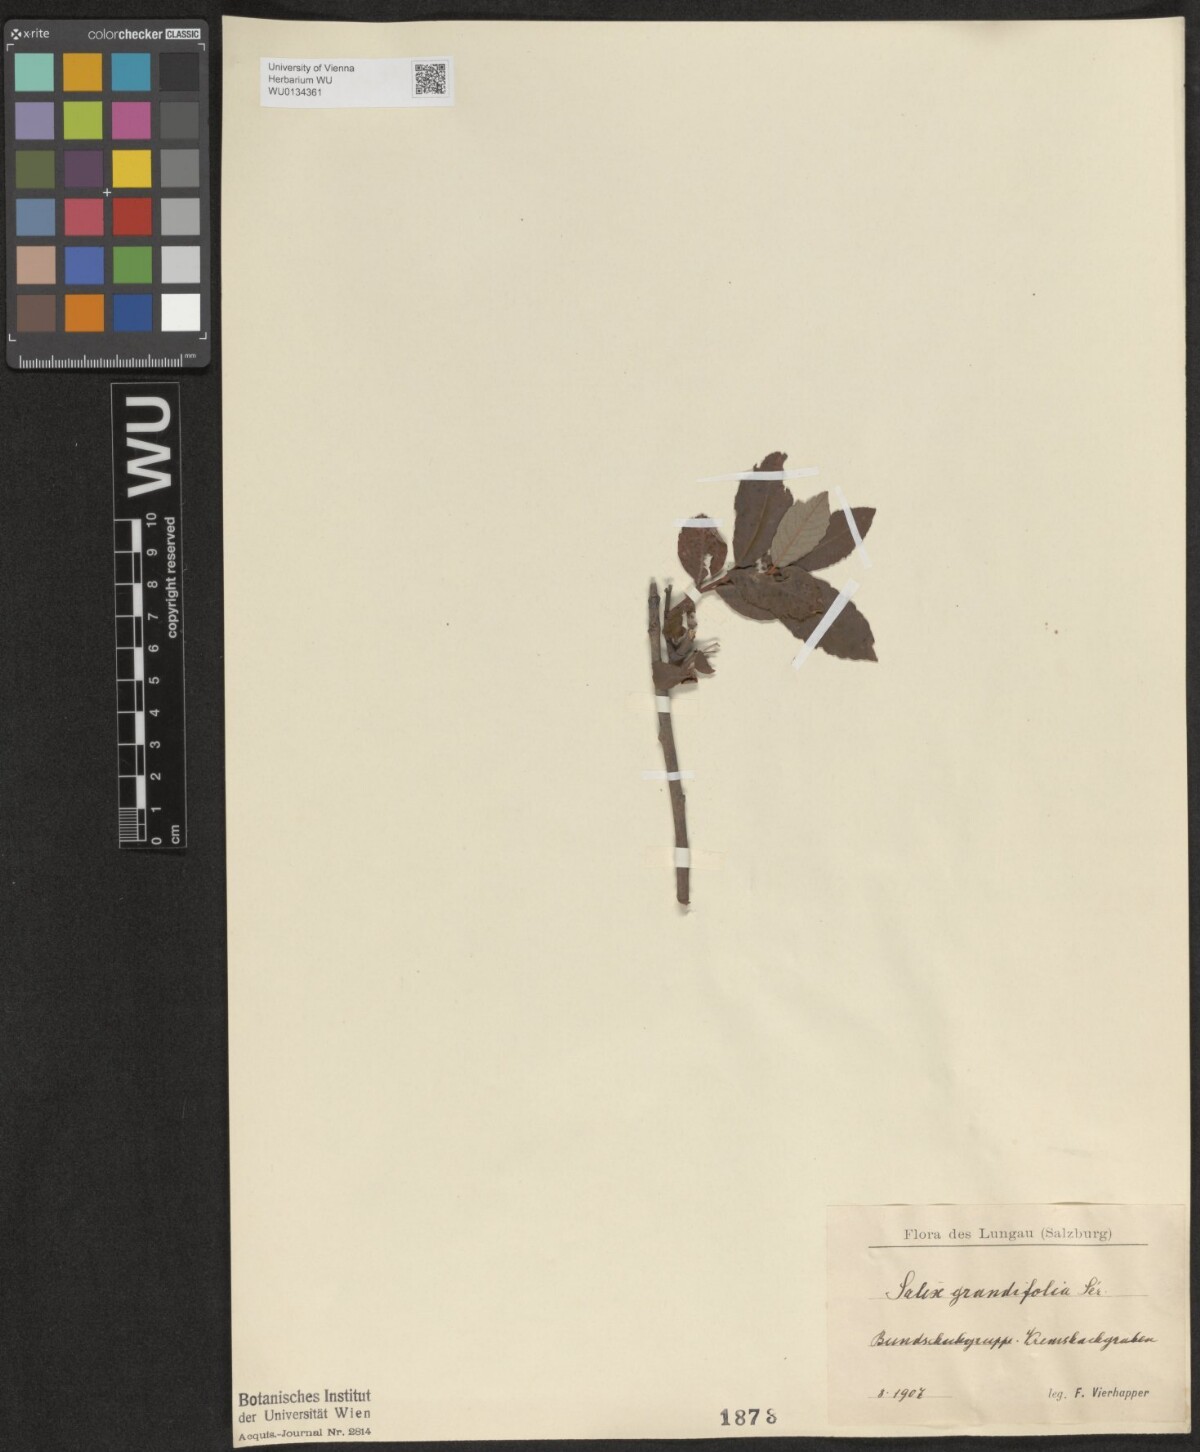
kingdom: Plantae
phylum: Tracheophyta
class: Magnoliopsida
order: Malpighiales
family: Salicaceae
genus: Salix
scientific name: Salix appendiculata
